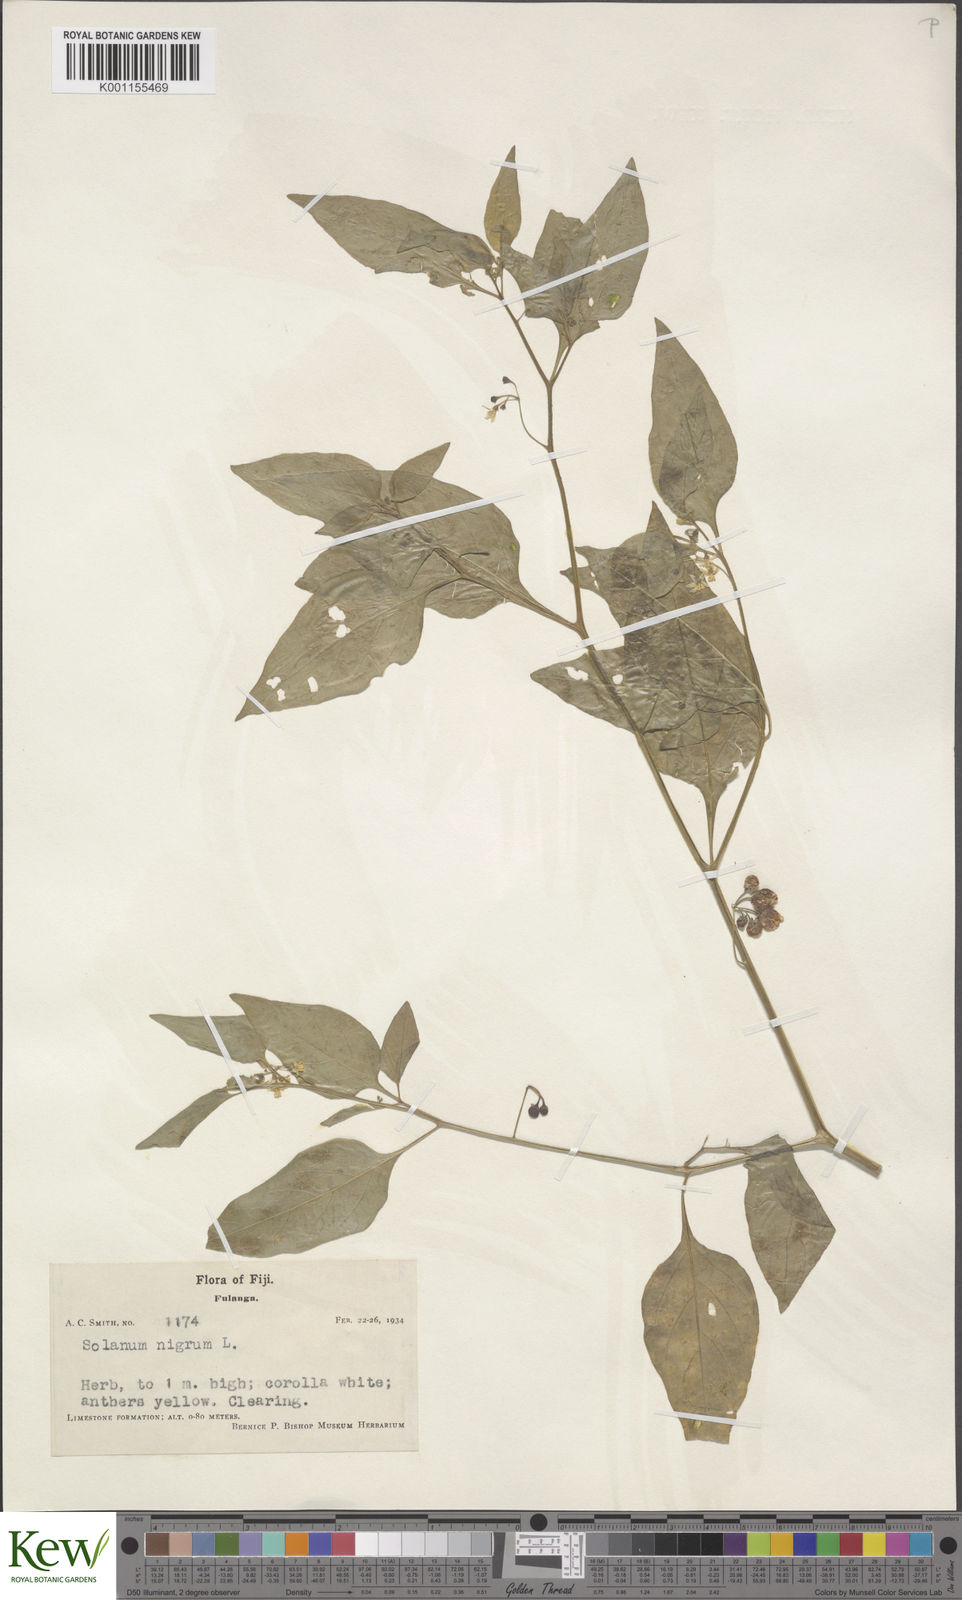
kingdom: Plantae
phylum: Tracheophyta
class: Magnoliopsida
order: Solanales
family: Solanaceae
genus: Solanum
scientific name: Solanum
